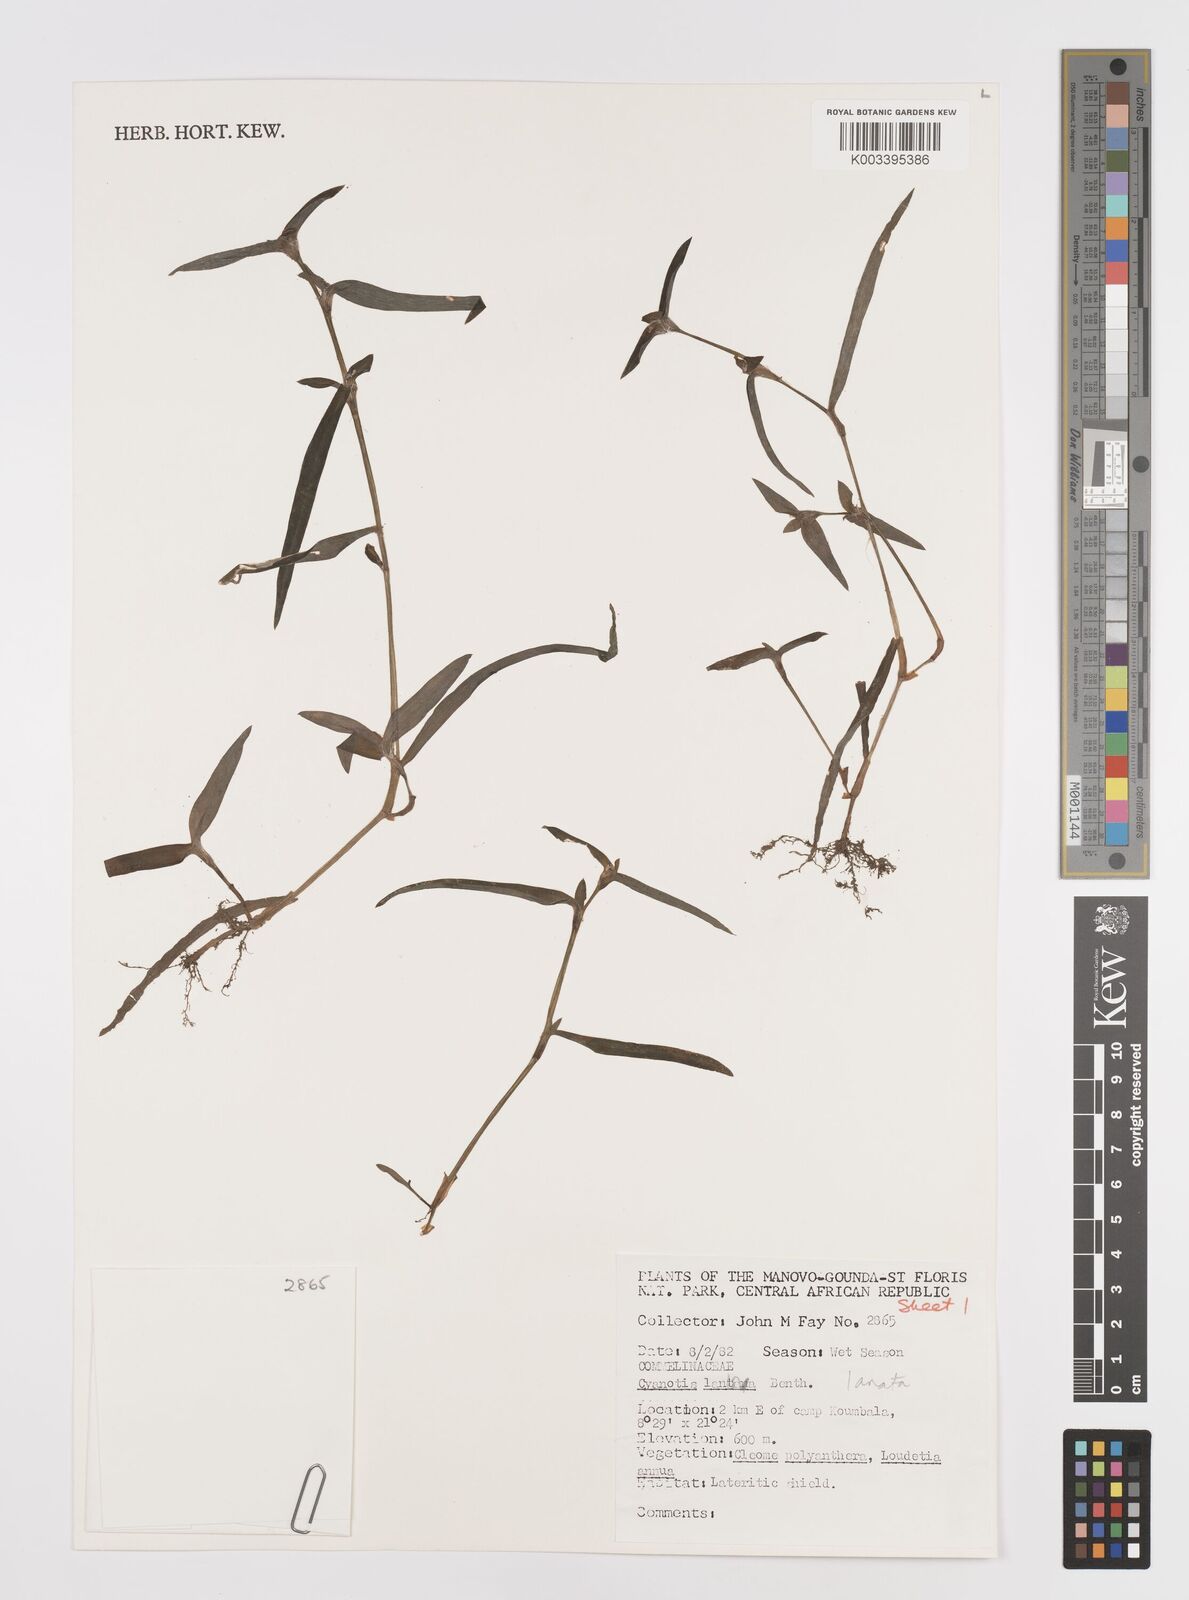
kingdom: Plantae
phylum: Tracheophyta
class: Liliopsida
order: Commelinales
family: Commelinaceae
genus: Cyanotis
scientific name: Cyanotis lanata
